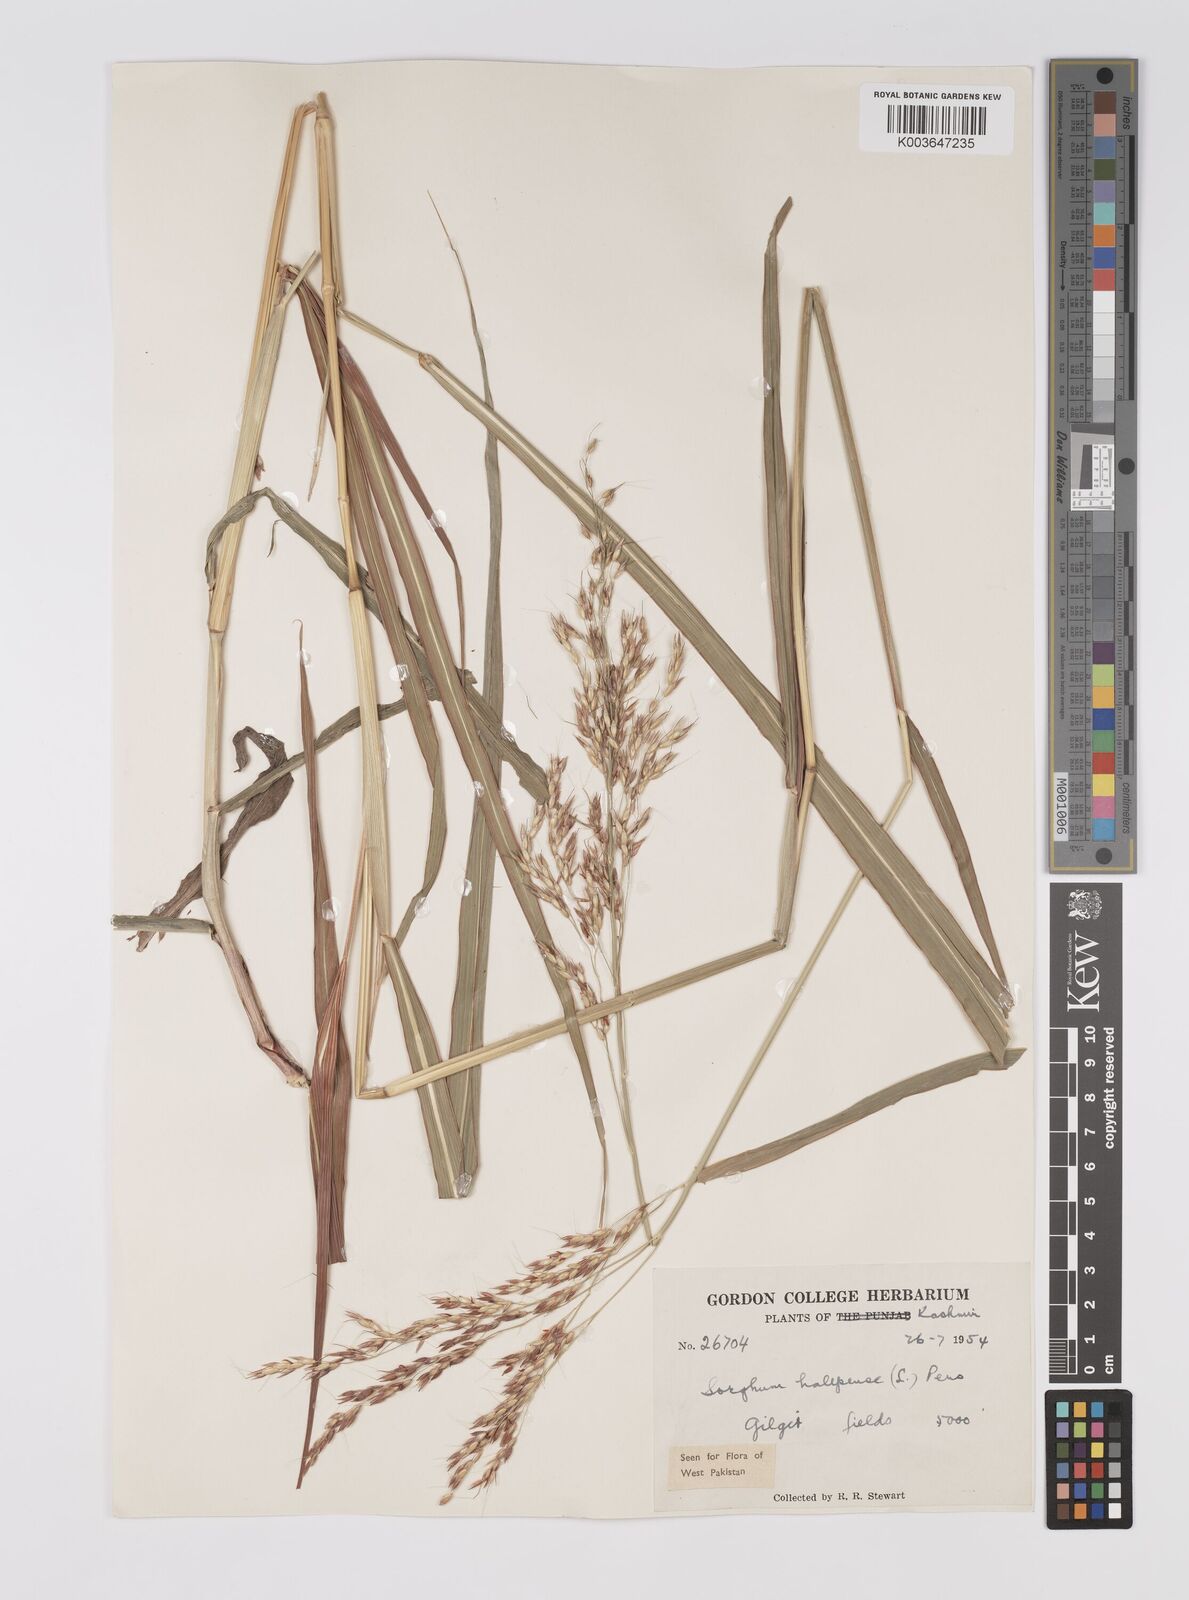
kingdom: Plantae
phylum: Tracheophyta
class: Liliopsida
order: Poales
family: Poaceae
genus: Sorghum
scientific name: Sorghum halepense
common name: Johnson-grass
